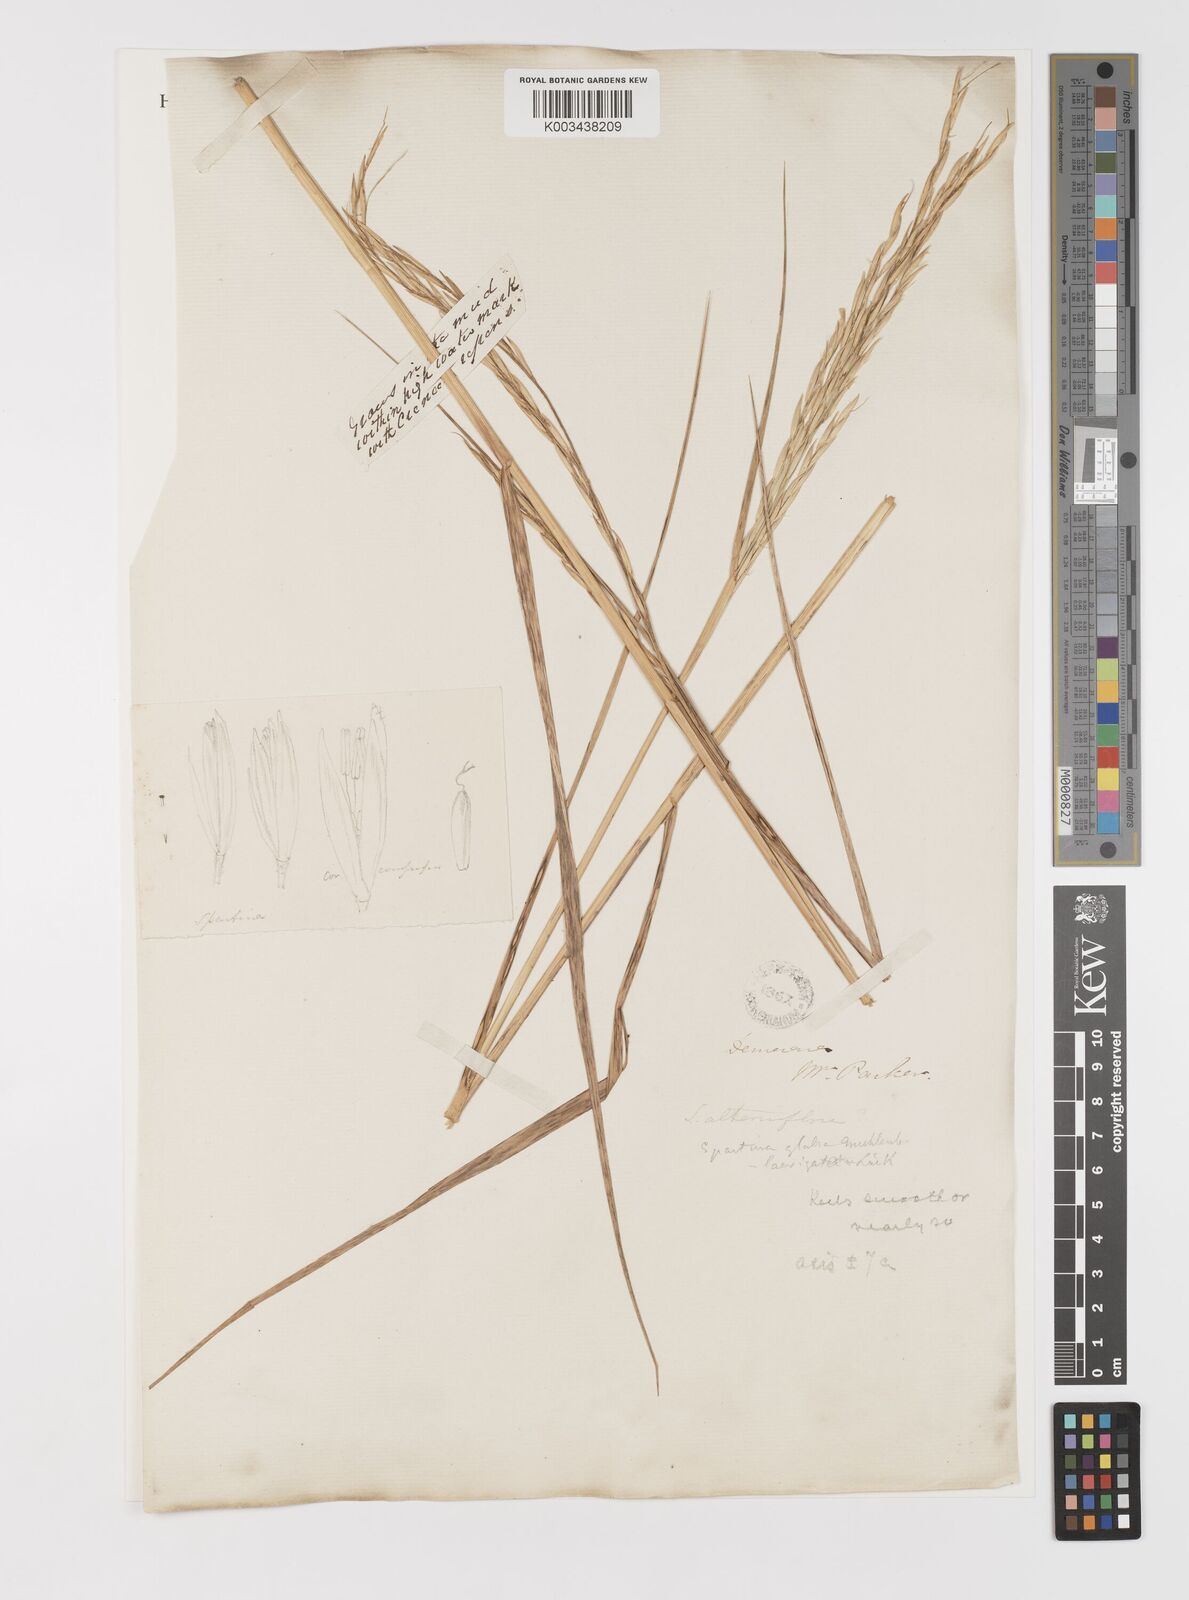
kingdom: Plantae
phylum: Tracheophyta
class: Liliopsida
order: Poales
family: Poaceae
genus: Sporobolus
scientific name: Sporobolus alterniflorus
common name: Atlantic cordgrass
